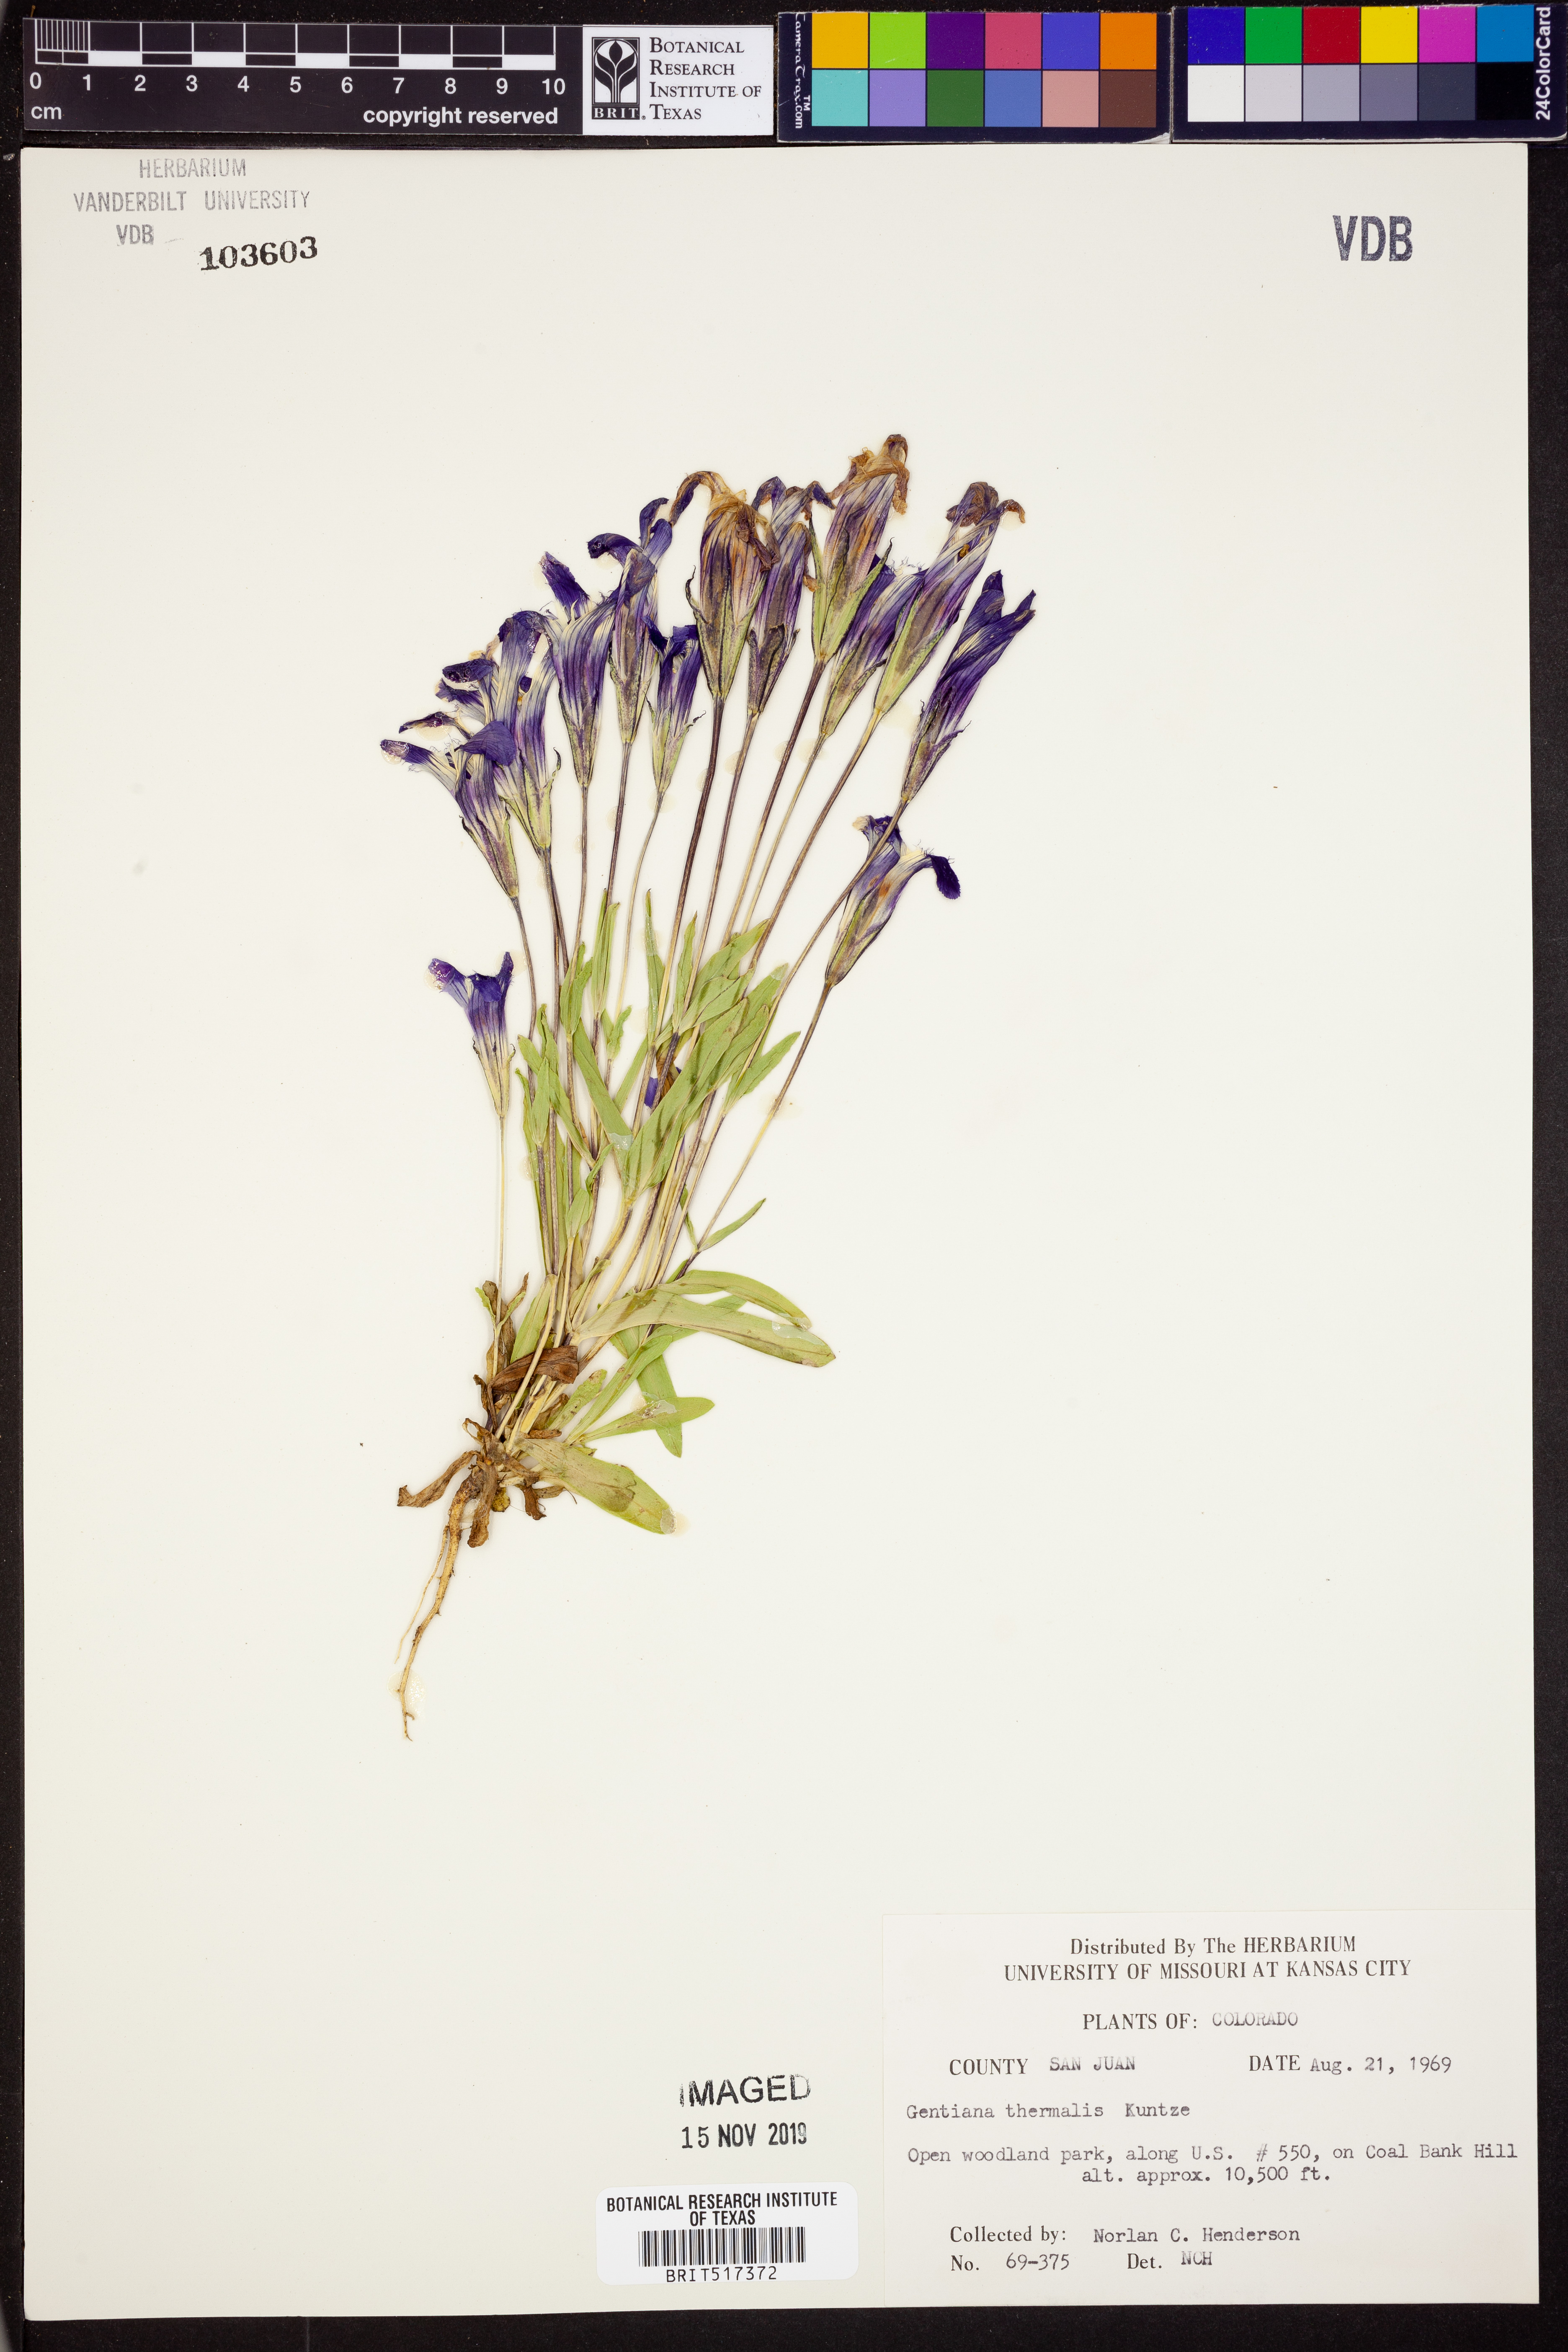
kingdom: Plantae
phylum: Tracheophyta
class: Magnoliopsida
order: Gentianales
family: Gentianaceae
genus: Gentianopsis
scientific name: Gentianopsis thermalis
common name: Rocky mountain fringed-gentian
